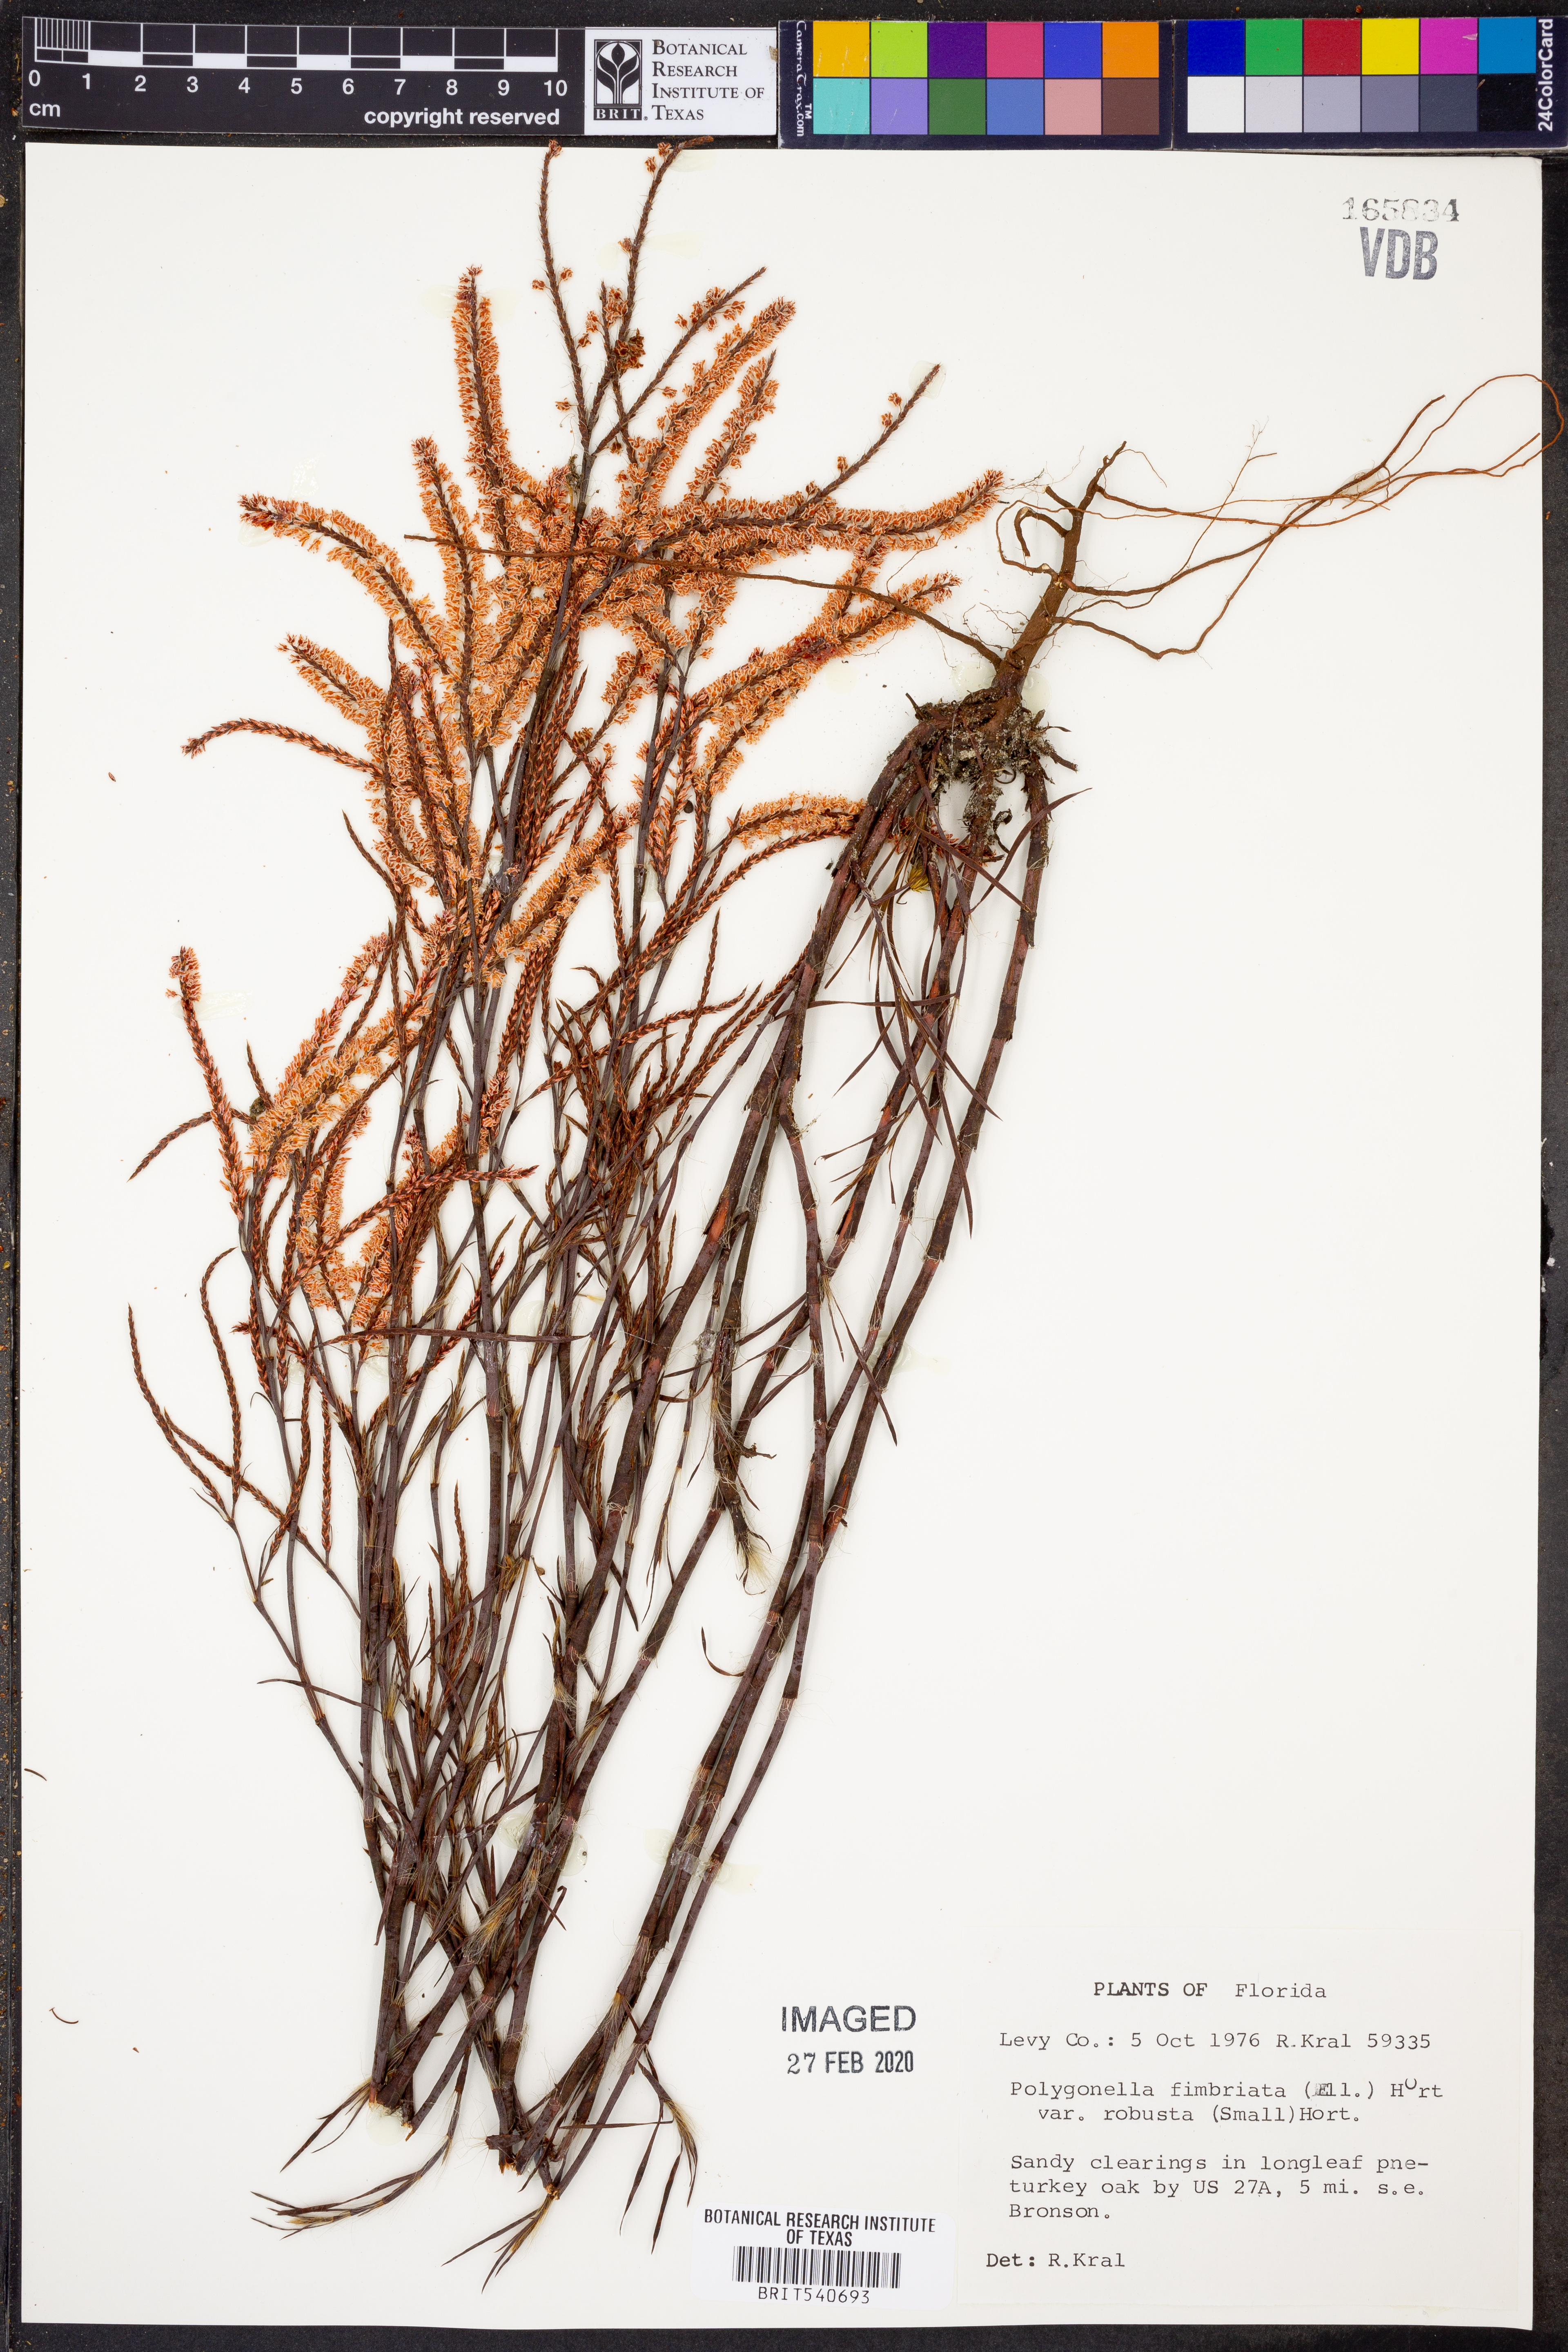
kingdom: Plantae
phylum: Tracheophyta
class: Magnoliopsida
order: Caryophyllales
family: Polygonaceae
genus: Polygonella
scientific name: Polygonella robusta
